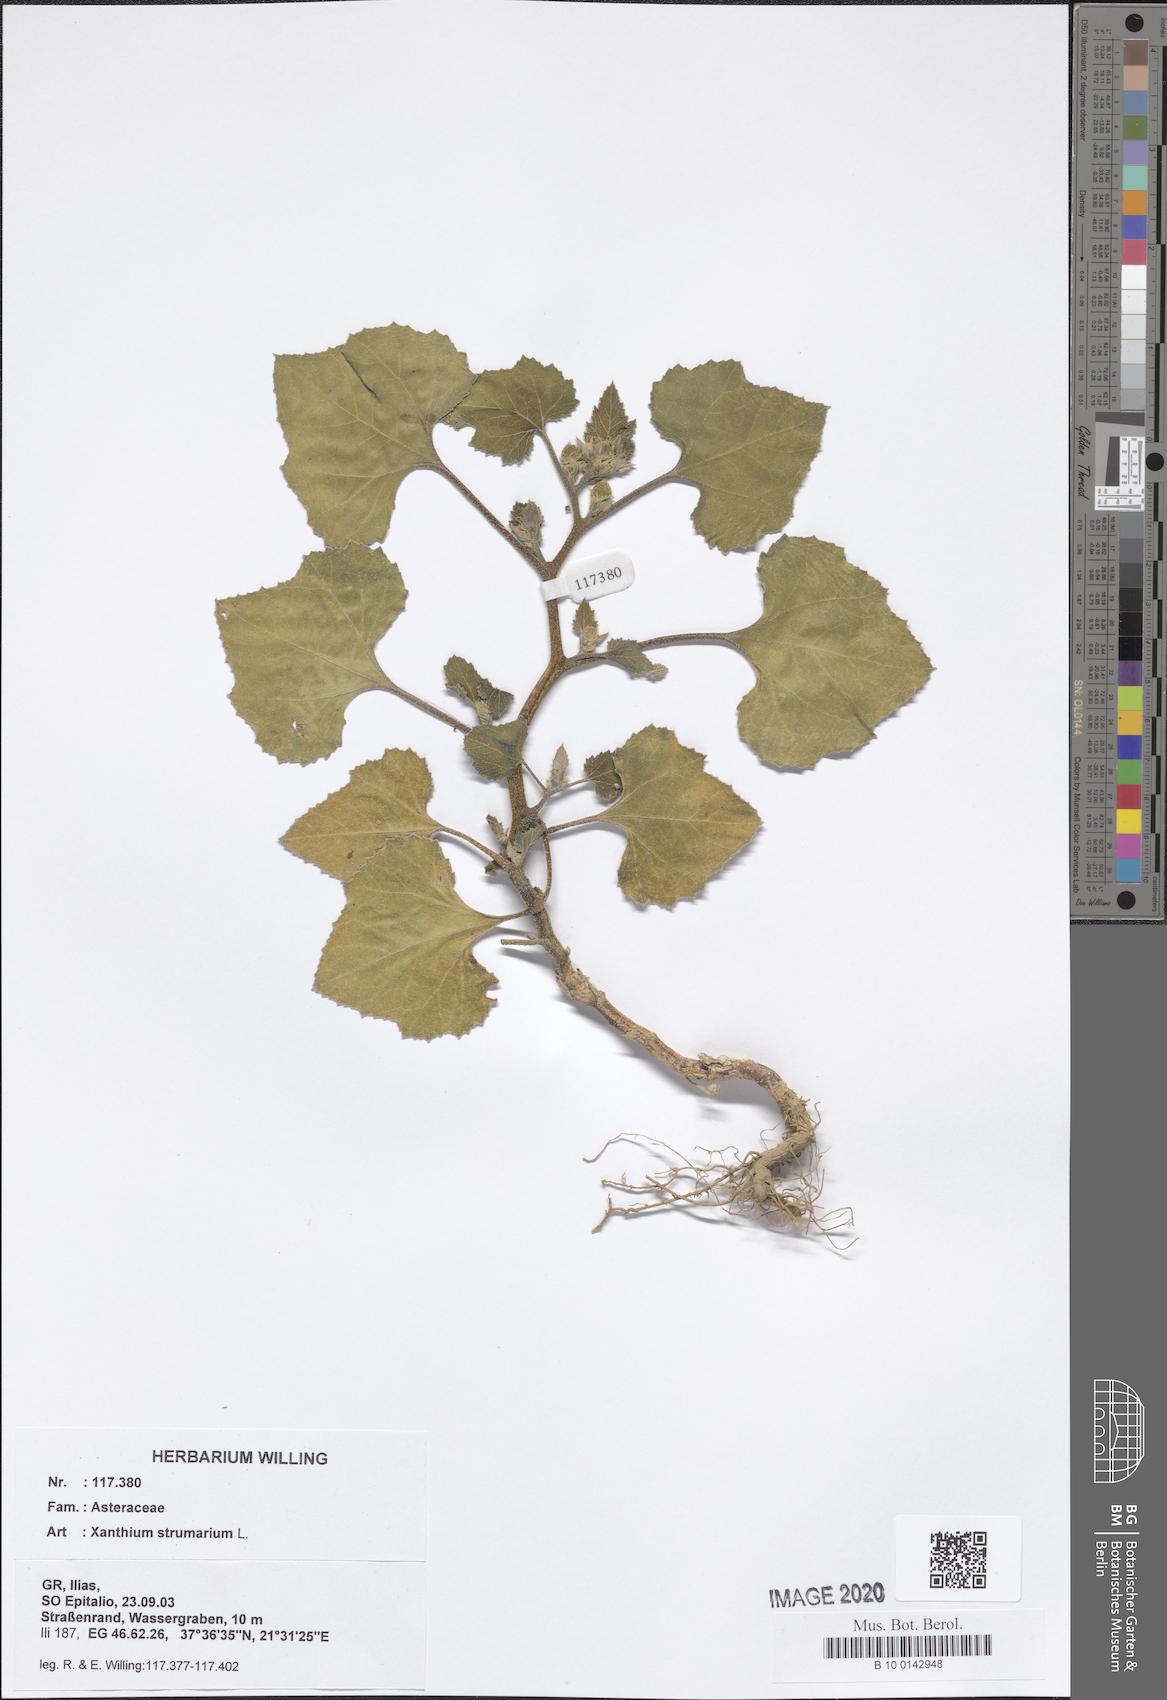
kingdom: Plantae
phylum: Tracheophyta
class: Magnoliopsida
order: Asterales
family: Asteraceae
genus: Xanthium
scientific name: Xanthium strumarium
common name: Rough cocklebur
